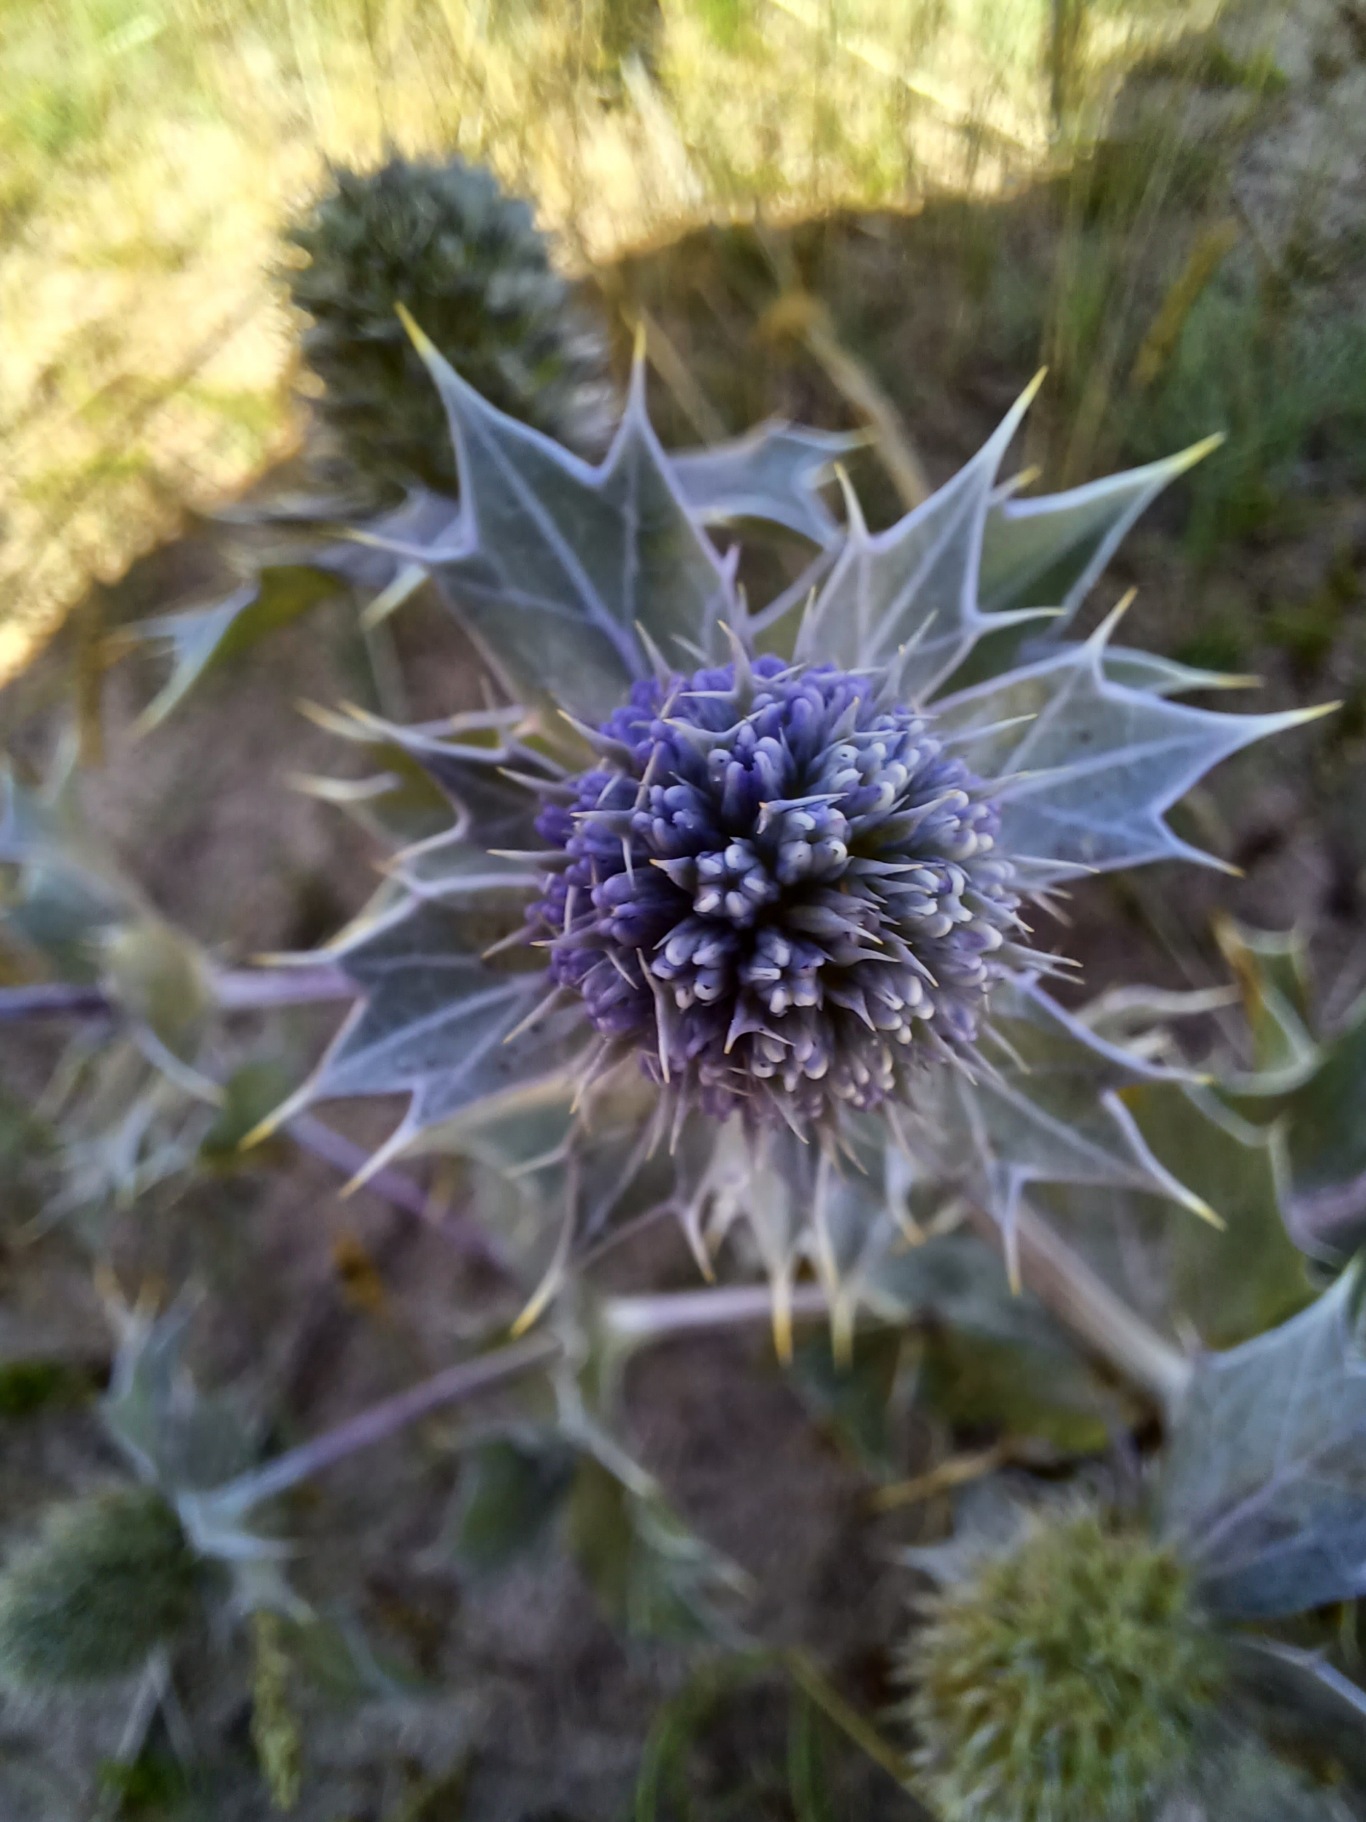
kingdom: Plantae
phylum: Tracheophyta
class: Magnoliopsida
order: Apiales
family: Apiaceae
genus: Eryngium
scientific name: Eryngium maritimum
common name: Strand-mandstro
